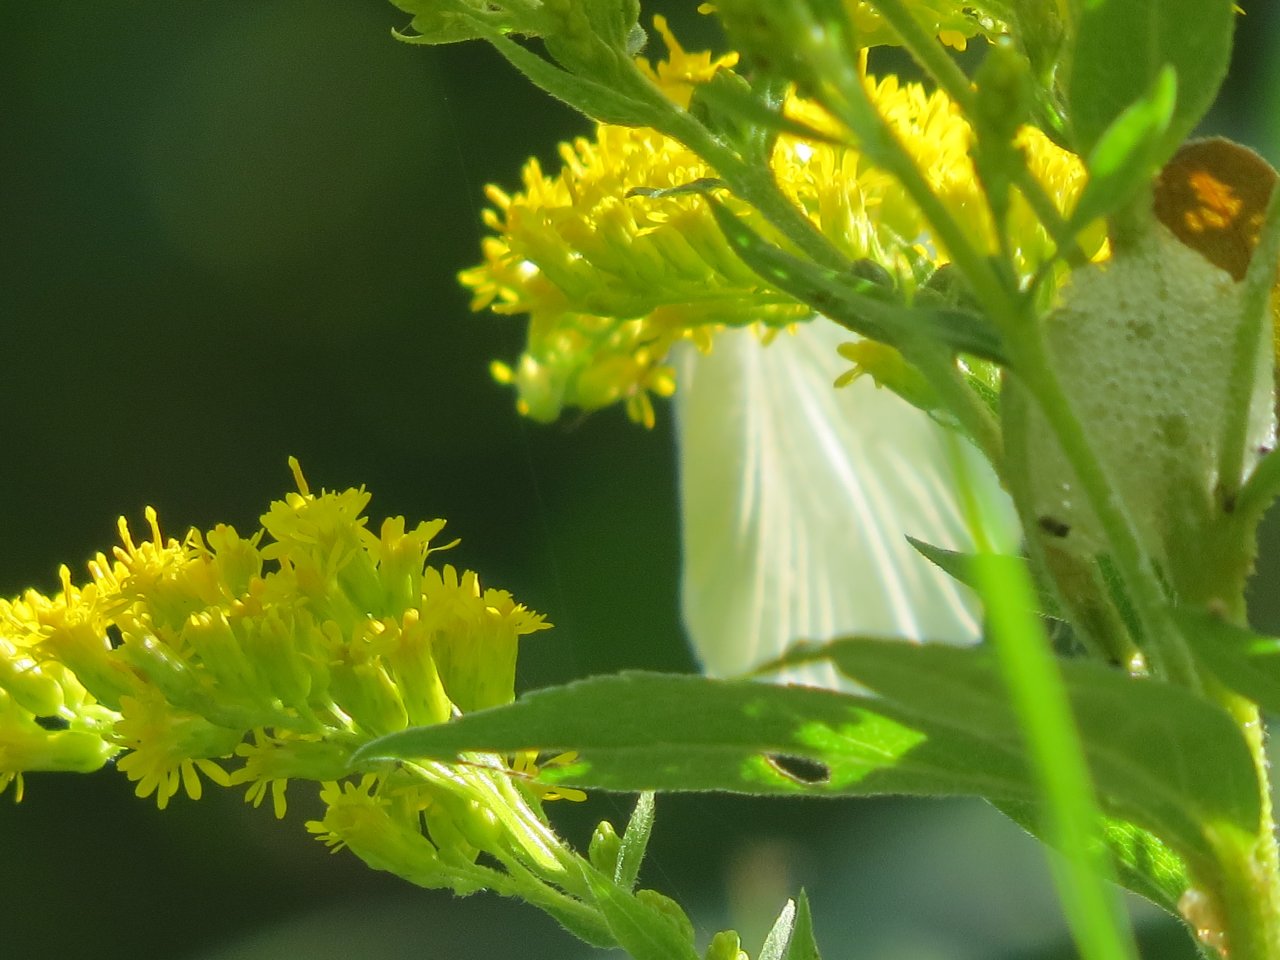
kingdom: Animalia
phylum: Arthropoda
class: Insecta
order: Lepidoptera
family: Pieridae
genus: Pieris
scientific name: Pieris oleracea
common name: Mustard White
